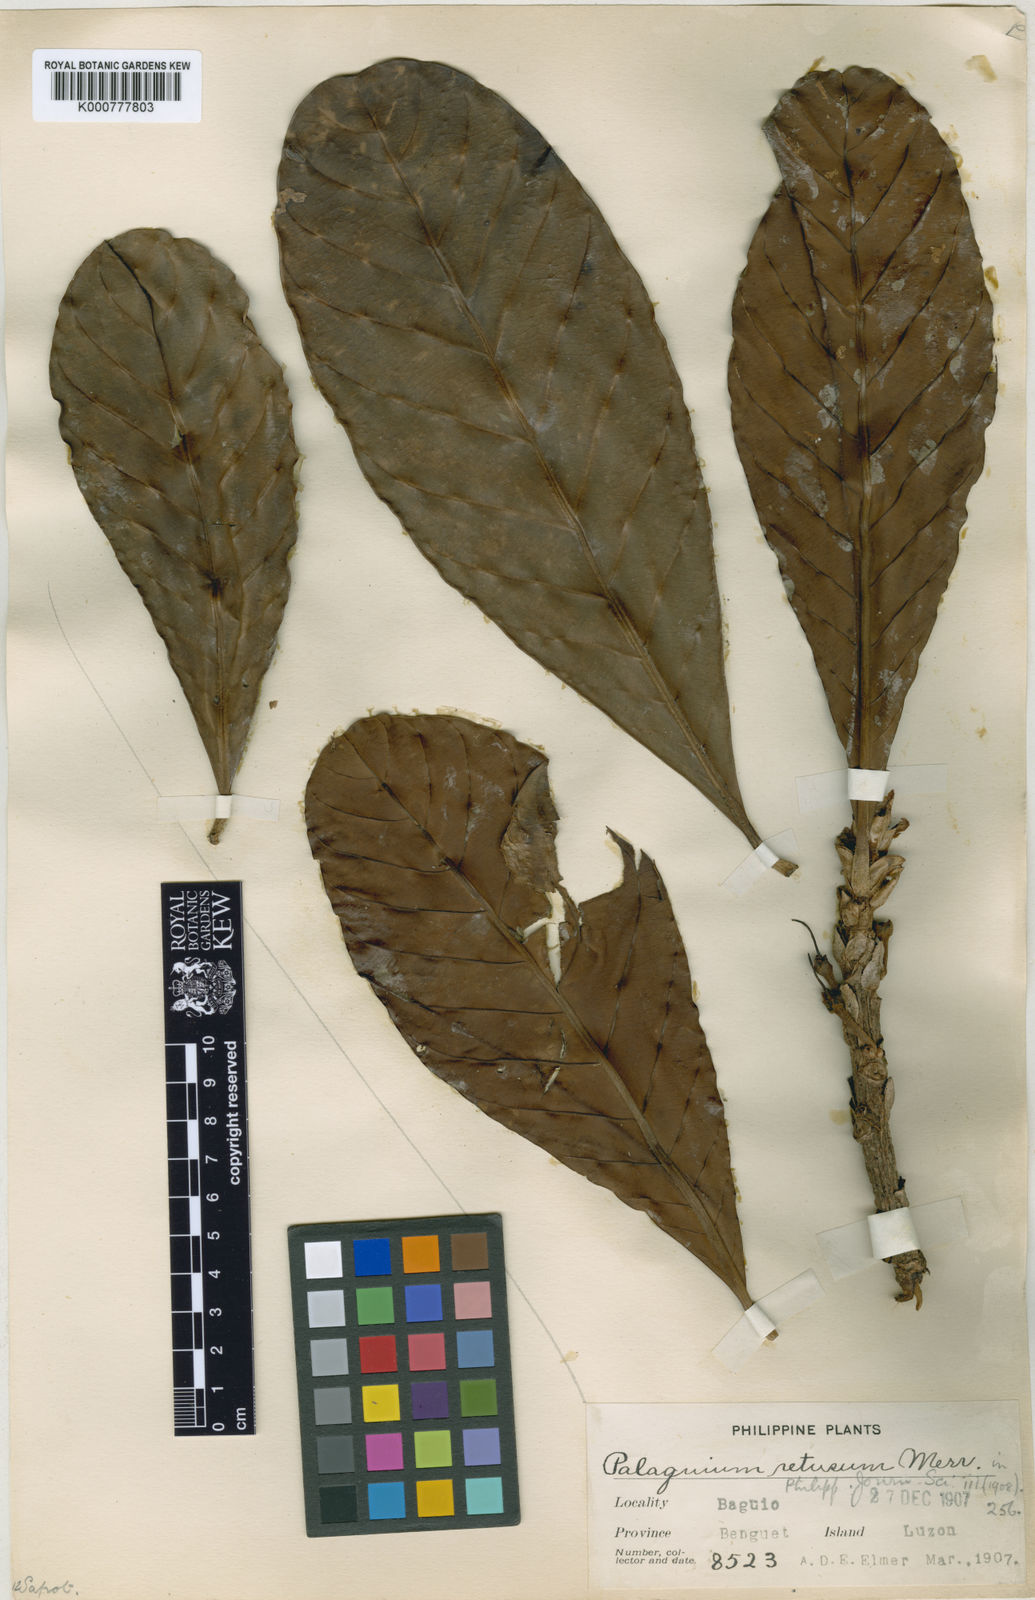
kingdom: Plantae
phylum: Tracheophyta
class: Magnoliopsida
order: Ericales
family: Sapotaceae
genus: Palaquium
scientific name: Palaquium globosum
